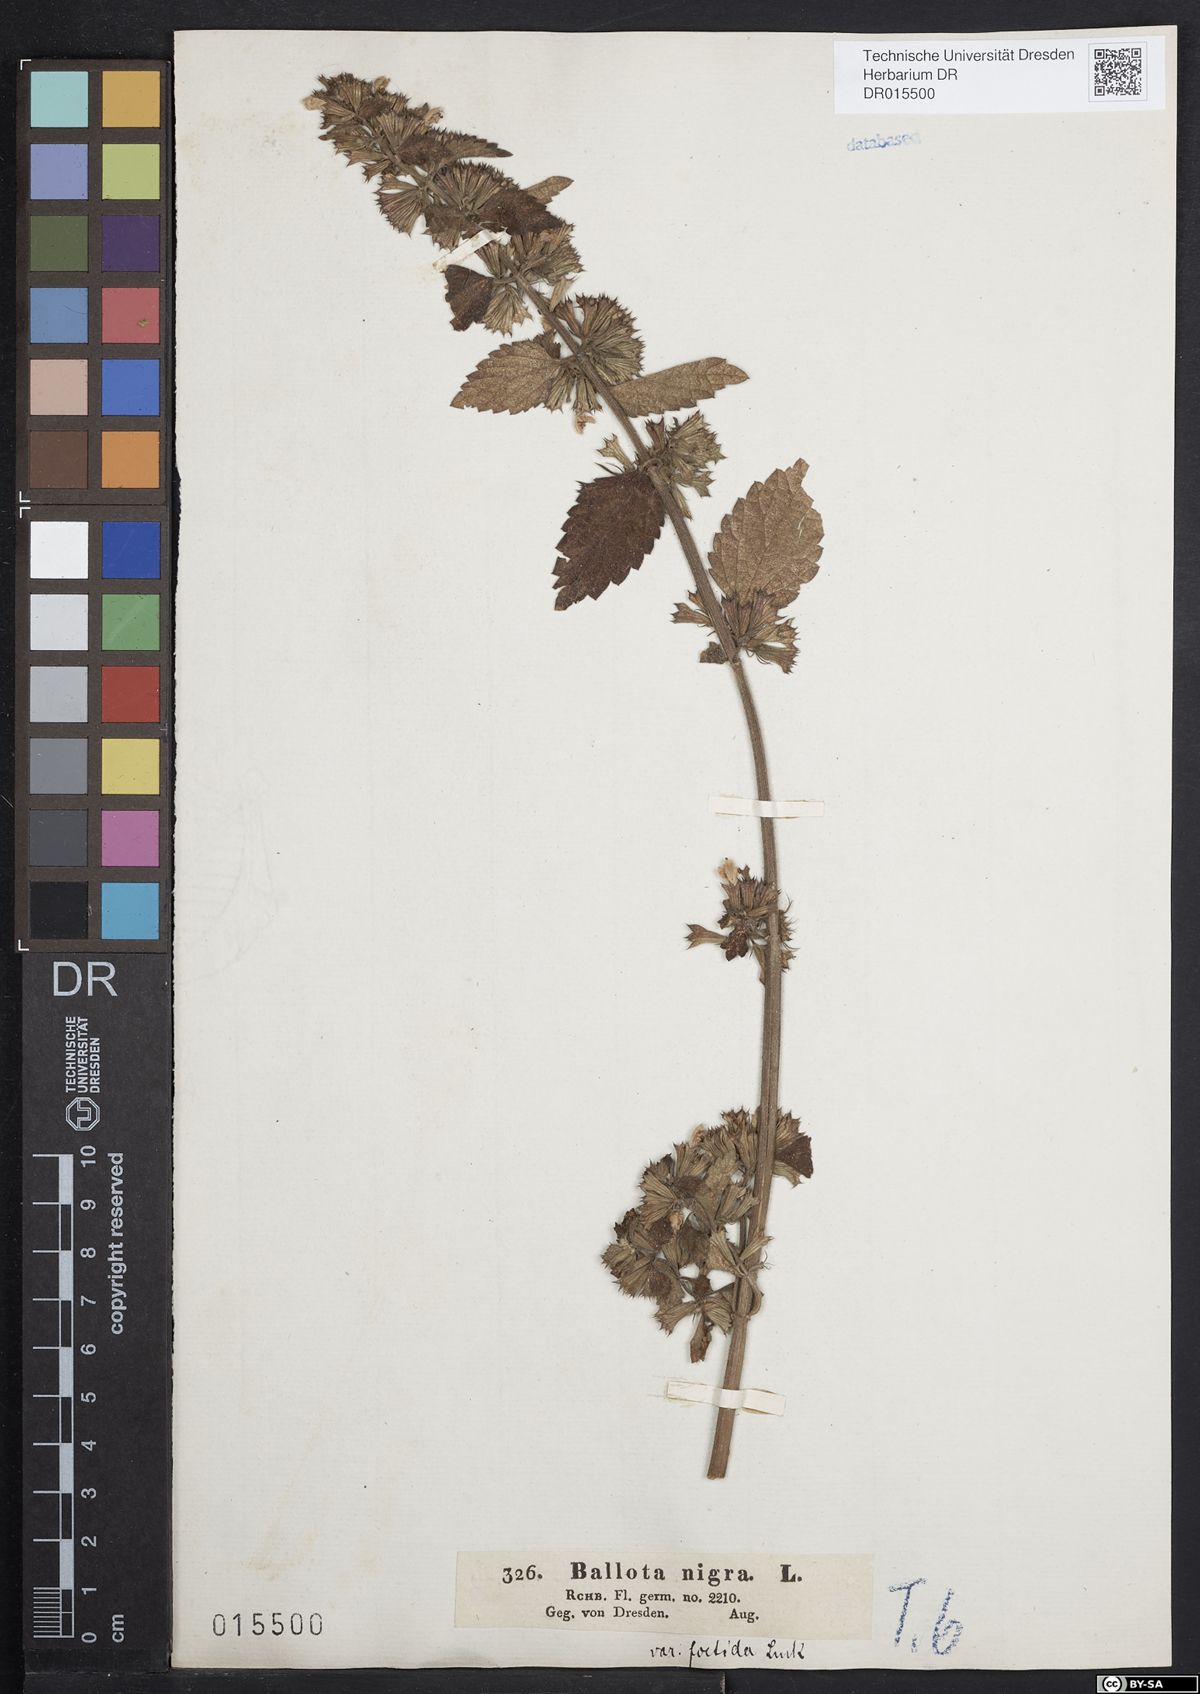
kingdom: Plantae
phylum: Tracheophyta
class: Magnoliopsida
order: Lamiales
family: Lamiaceae
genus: Ballota
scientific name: Ballota nigra
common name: Black horehound
